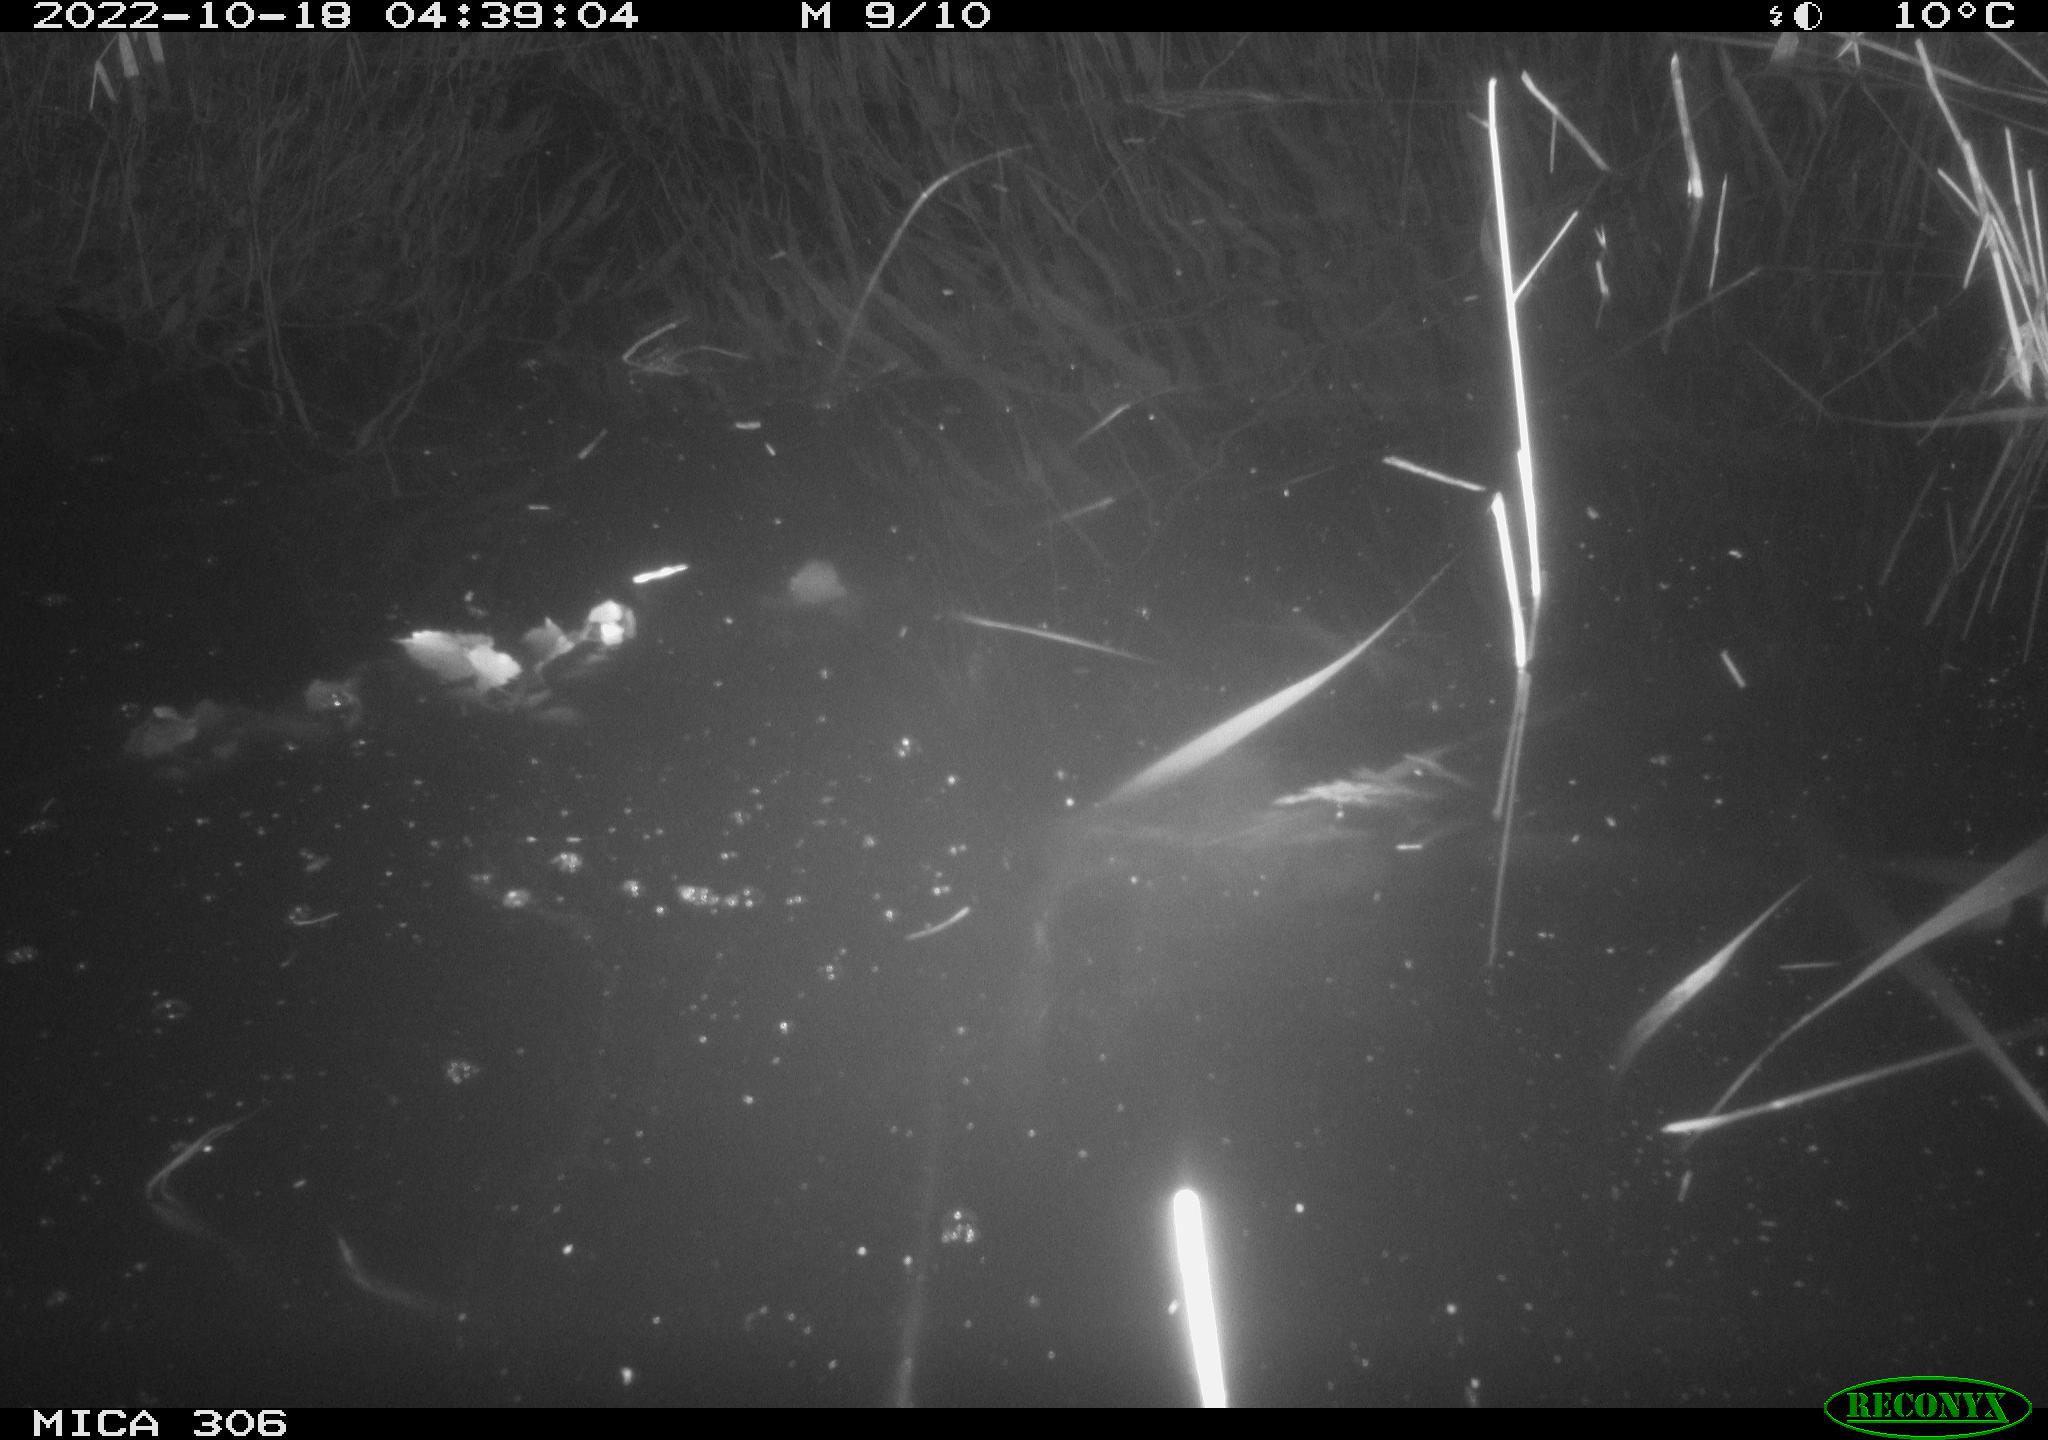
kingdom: Animalia
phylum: Chordata
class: Mammalia
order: Rodentia
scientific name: Rodentia
